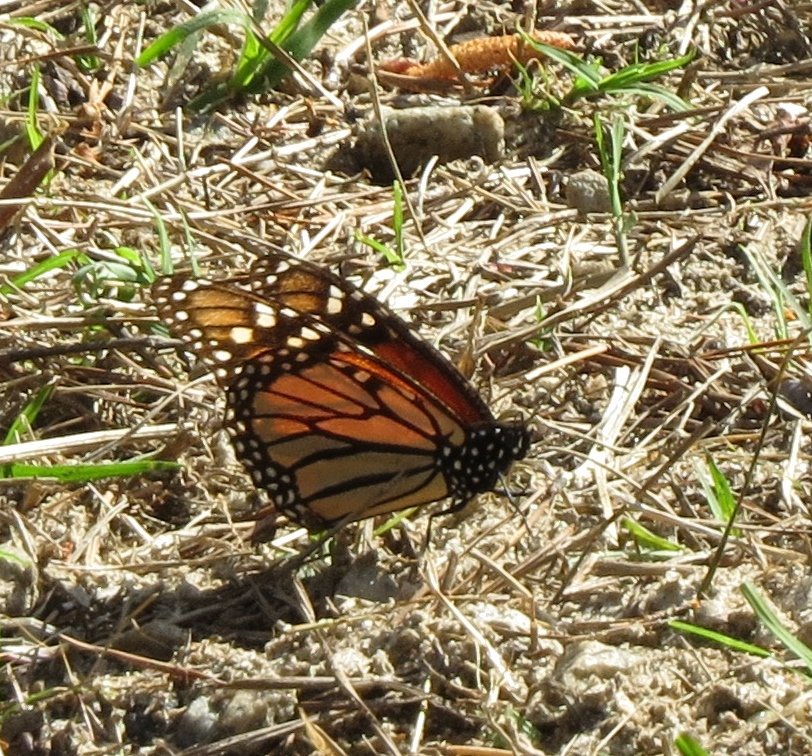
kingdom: Animalia
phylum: Arthropoda
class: Insecta
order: Lepidoptera
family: Nymphalidae
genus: Danaus
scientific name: Danaus plexippus
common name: Monarch
